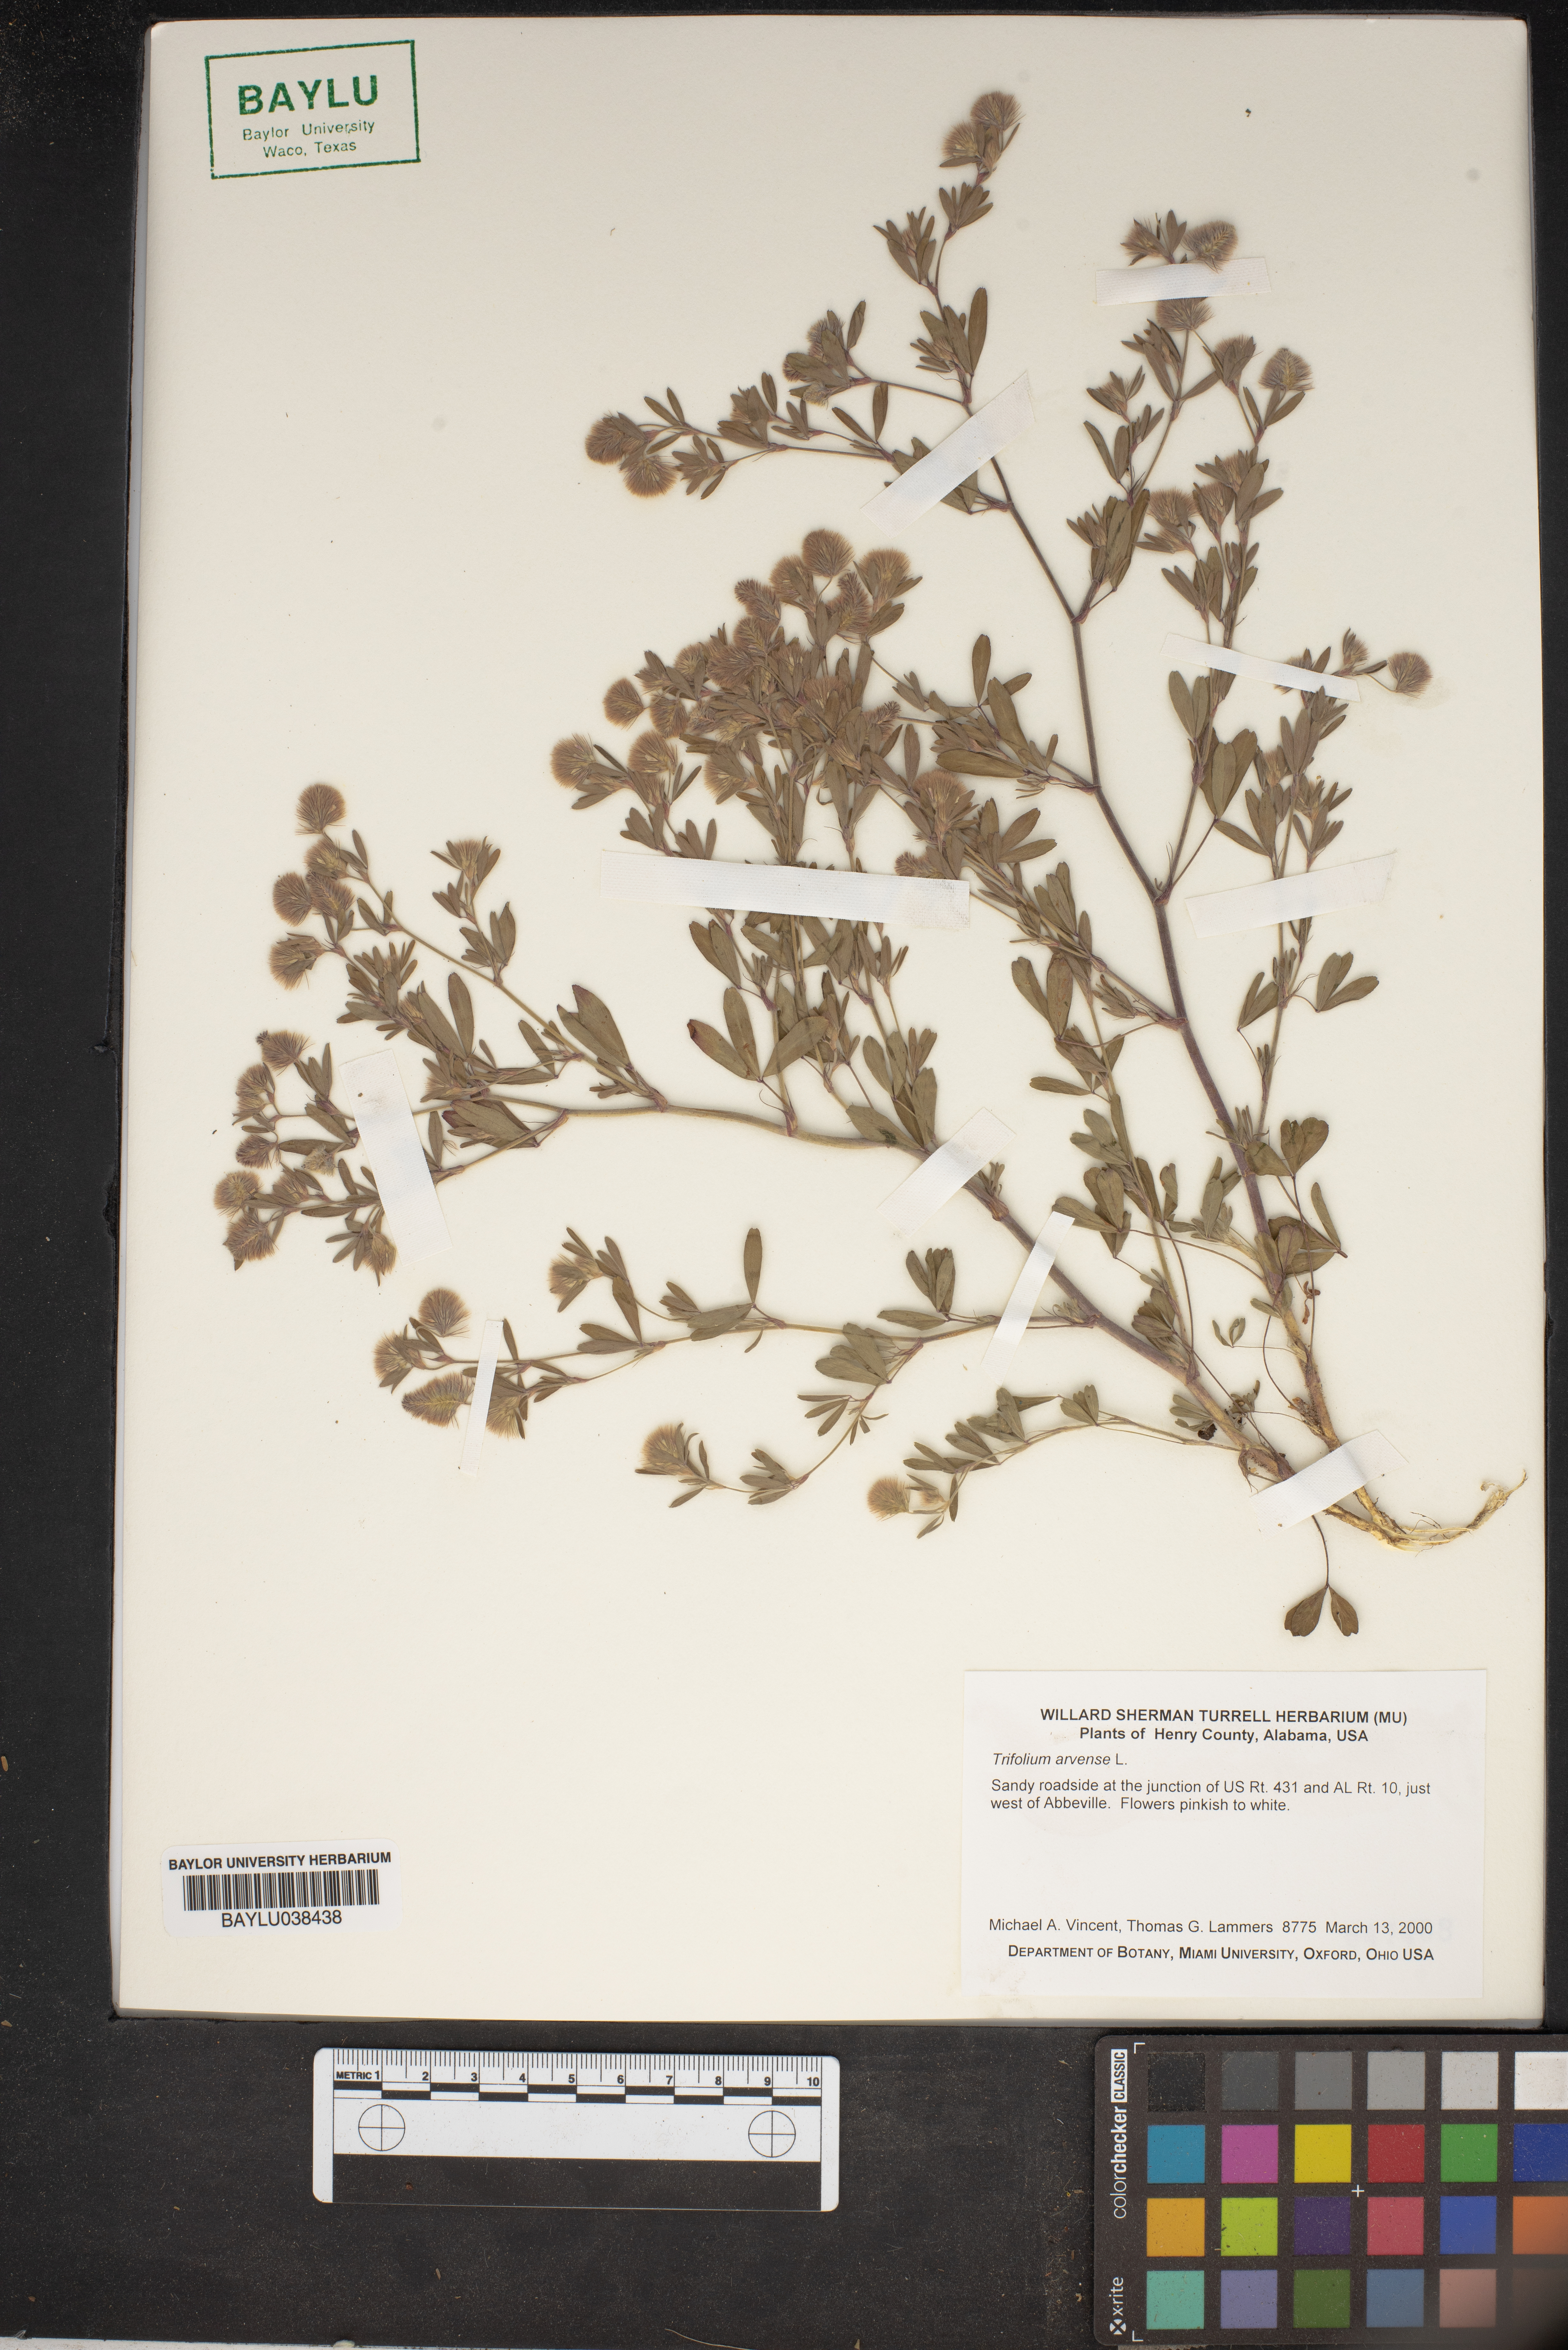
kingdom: Plantae
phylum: Tracheophyta
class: Magnoliopsida
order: Fabales
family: Fabaceae
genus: Trifolium
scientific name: Trifolium arvense
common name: Hare's-foot clover
